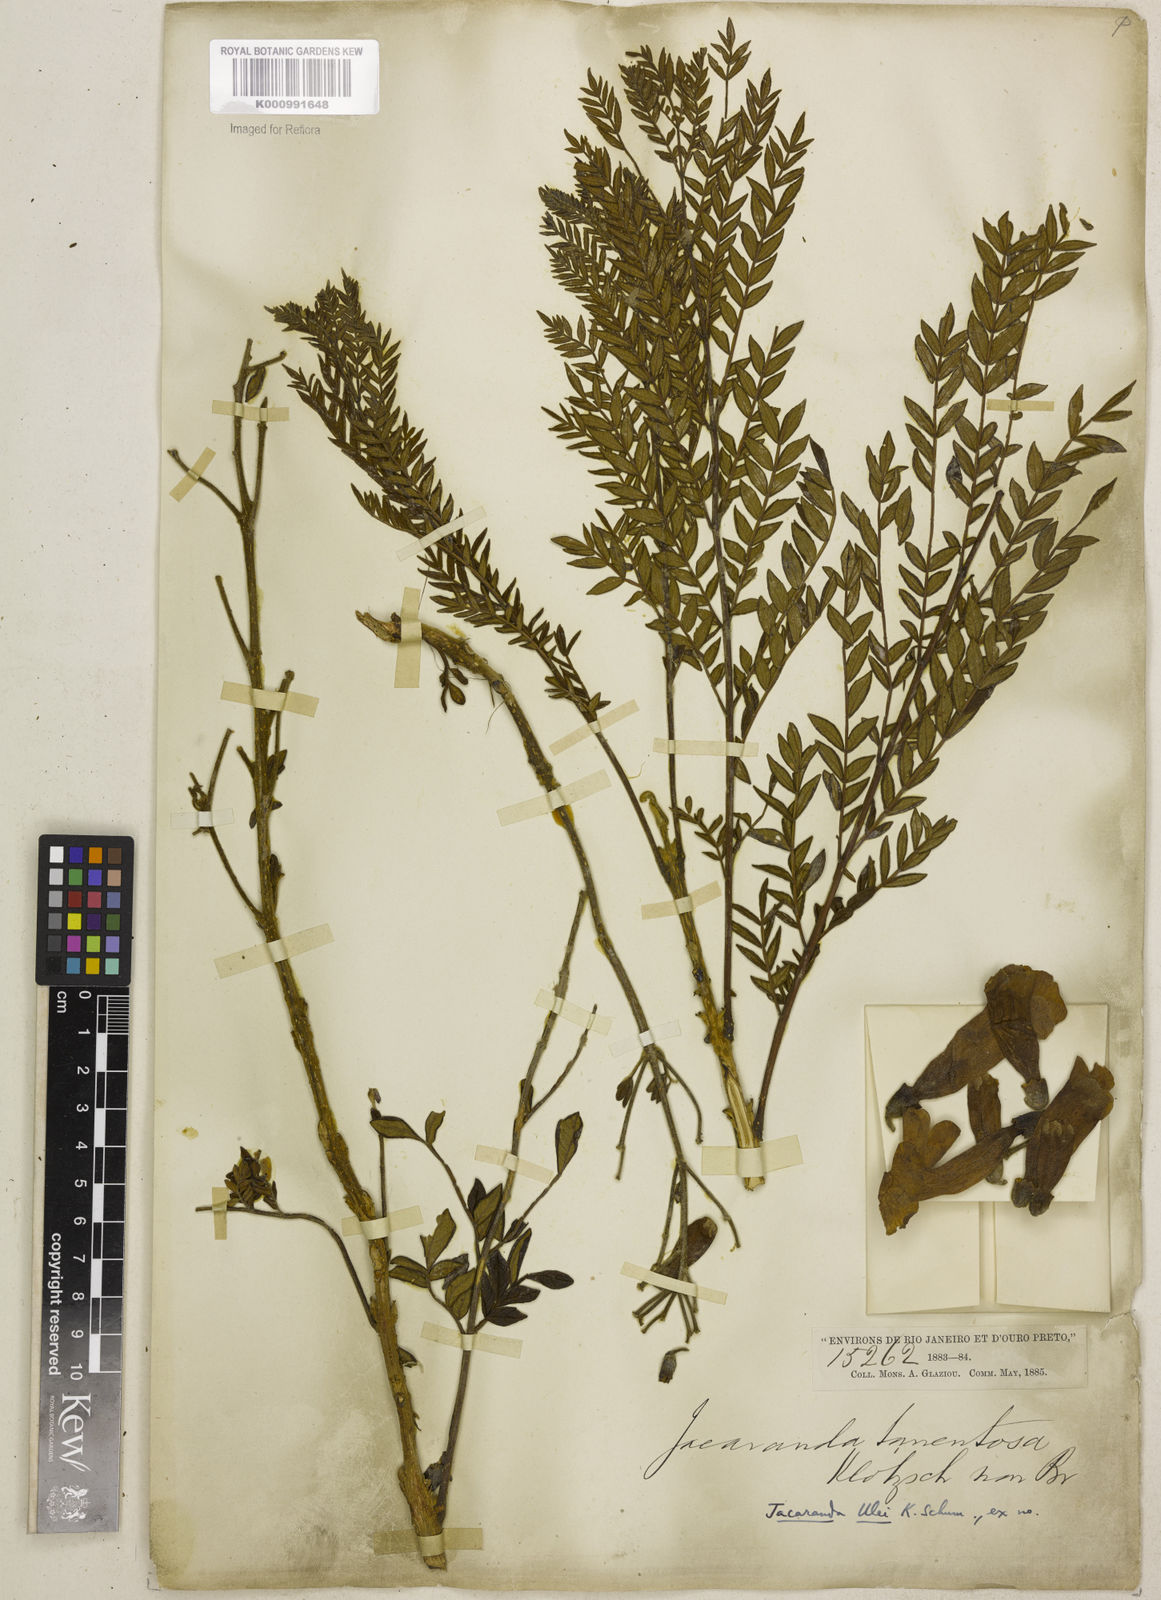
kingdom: Plantae
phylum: Tracheophyta
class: Magnoliopsida
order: Lamiales
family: Bignoniaceae
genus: Jacaranda
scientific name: Jacaranda ulei
